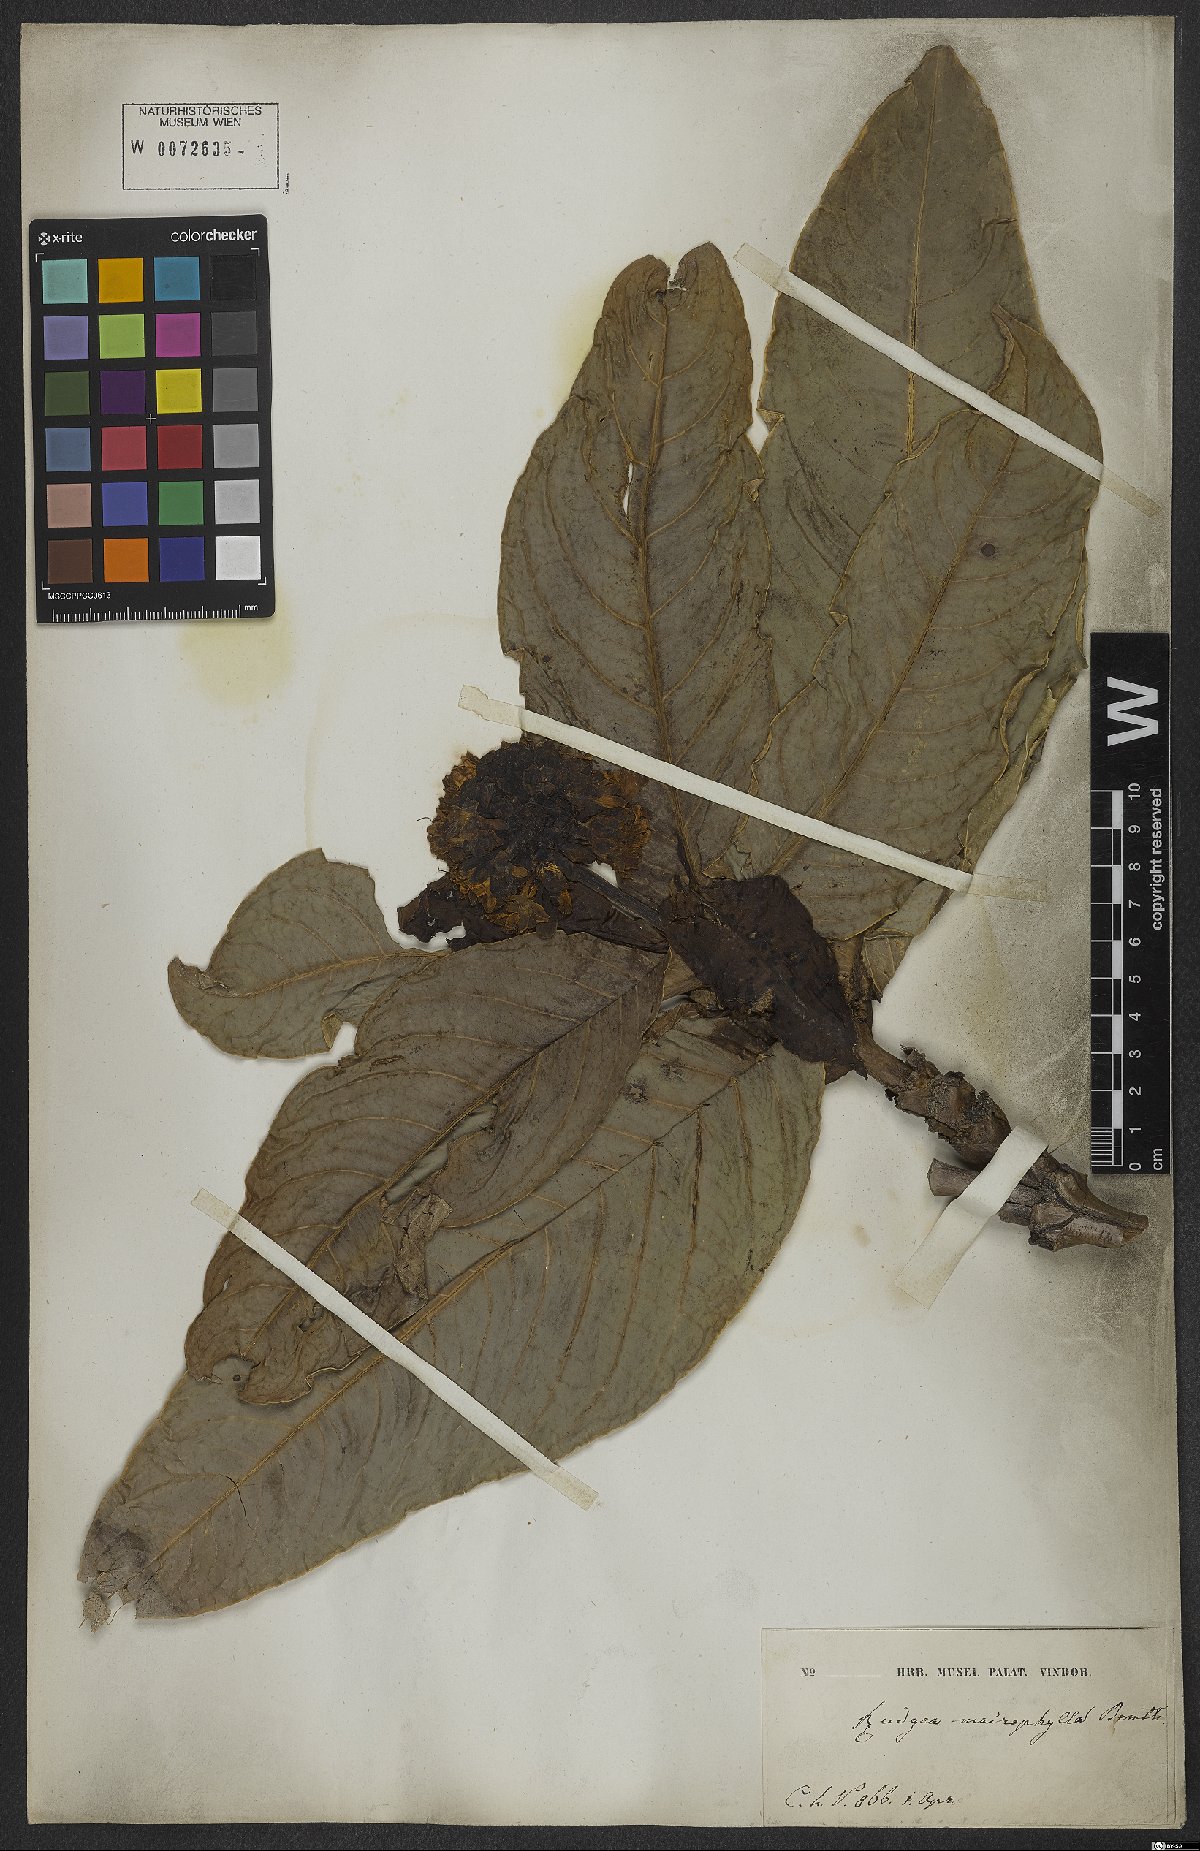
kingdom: Plantae
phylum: Tracheophyta
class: Magnoliopsida
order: Gentianales
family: Rubiaceae
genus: Rudgea
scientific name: Rudgea macrophylla
